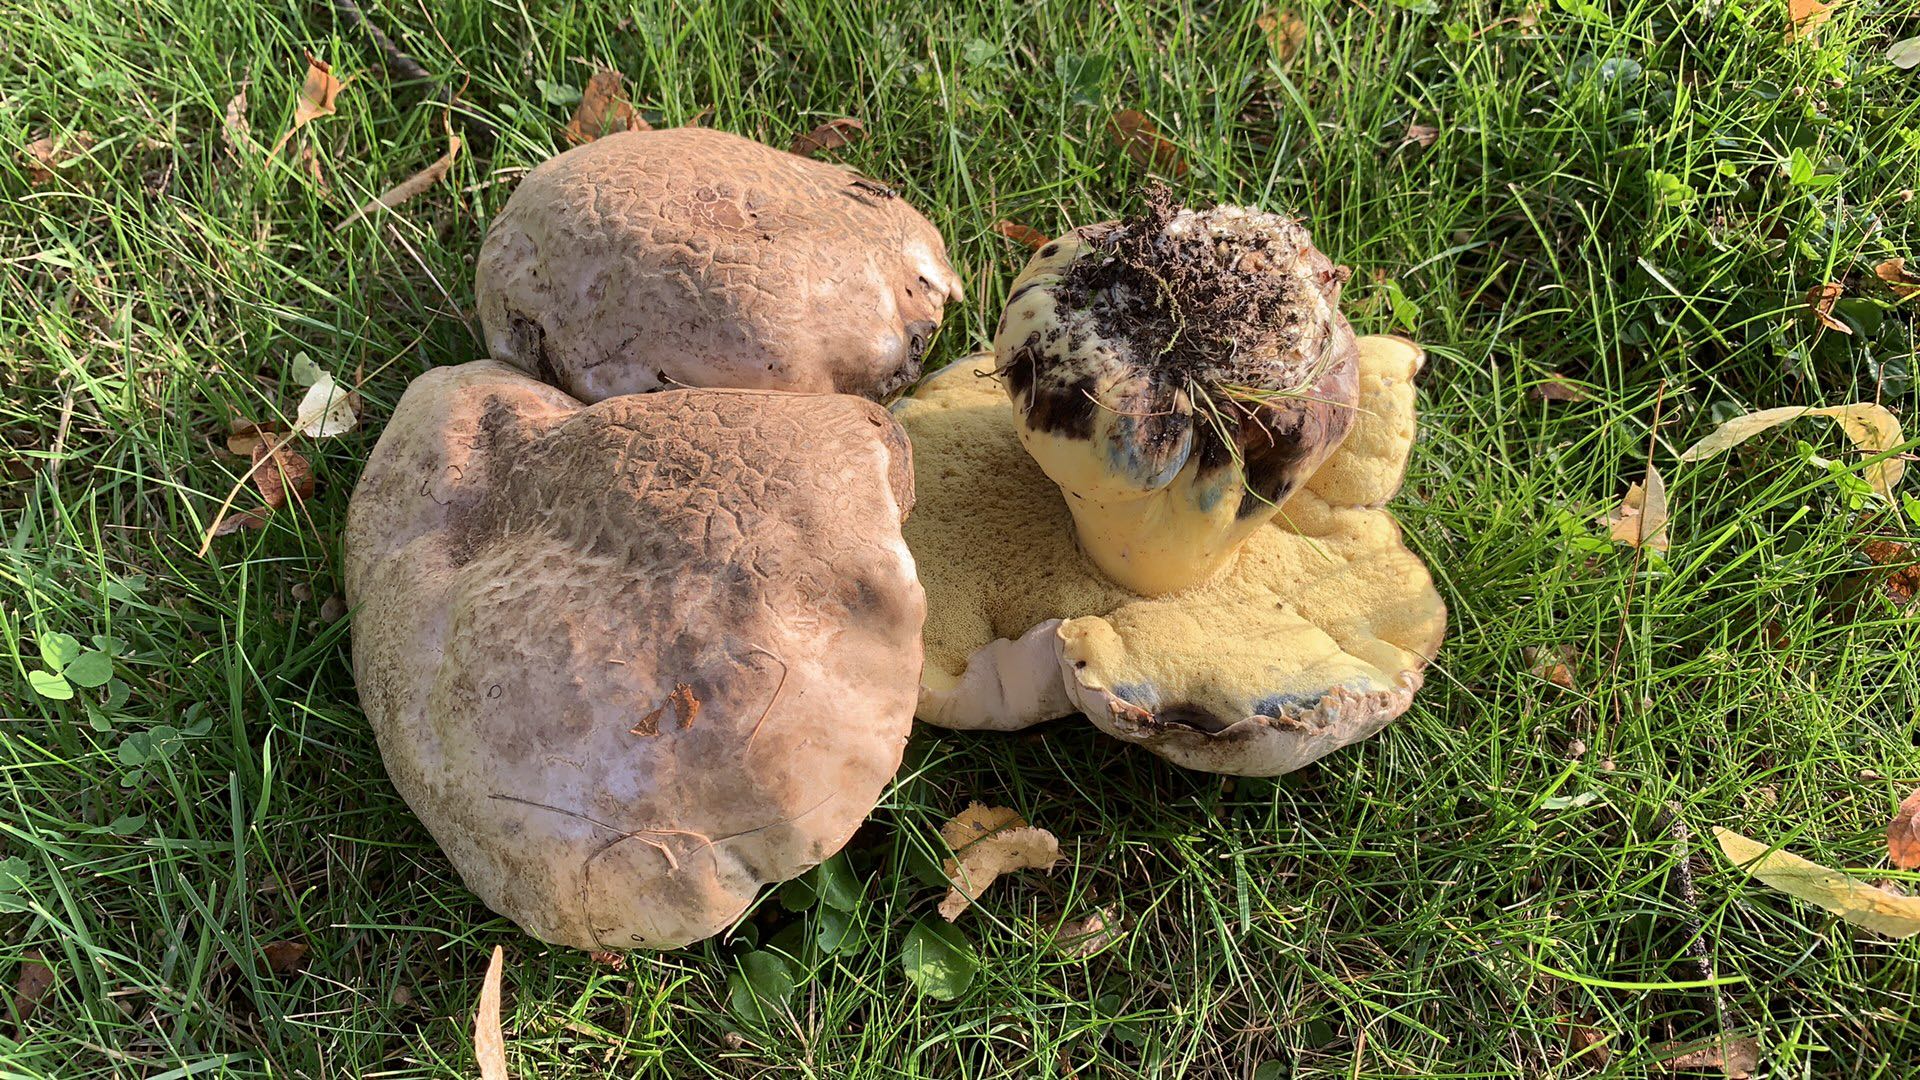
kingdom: Fungi
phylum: Basidiomycota
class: Agaricomycetes
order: Boletales
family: Boletaceae
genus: Caloboletus
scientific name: Caloboletus radicans
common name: rod-rørhat
